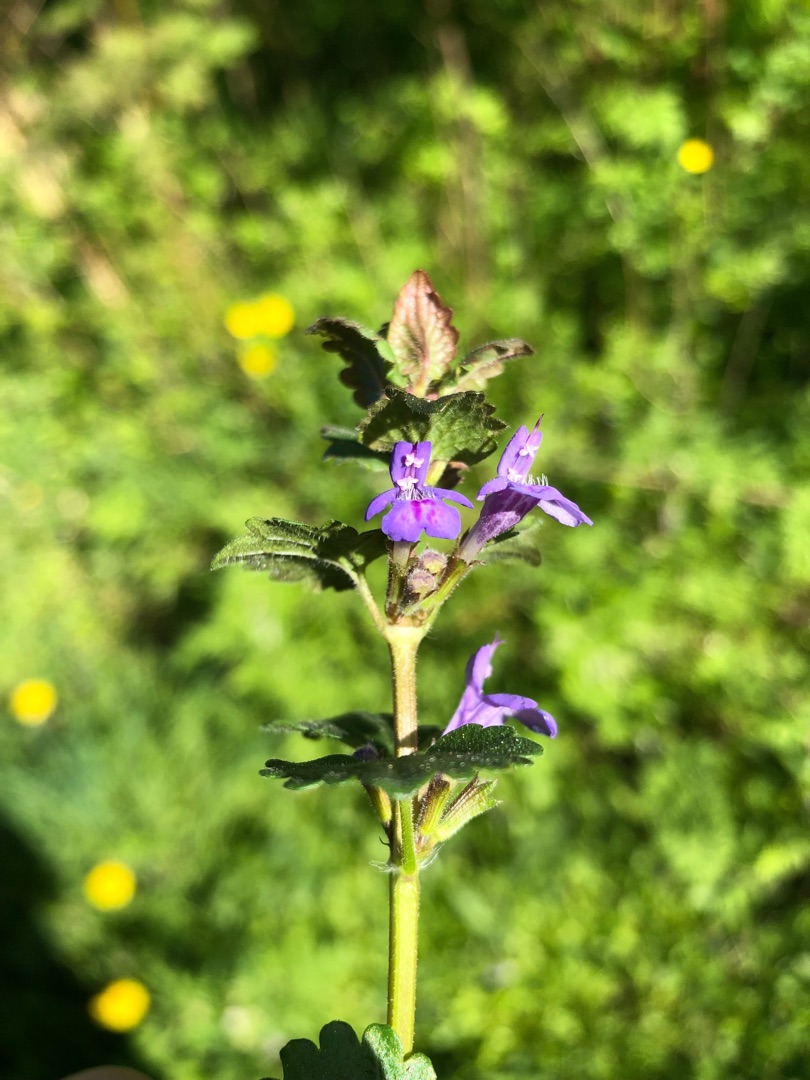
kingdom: Plantae
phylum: Tracheophyta
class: Magnoliopsida
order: Lamiales
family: Lamiaceae
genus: Glechoma
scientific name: Glechoma hederacea
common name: Korsknap
